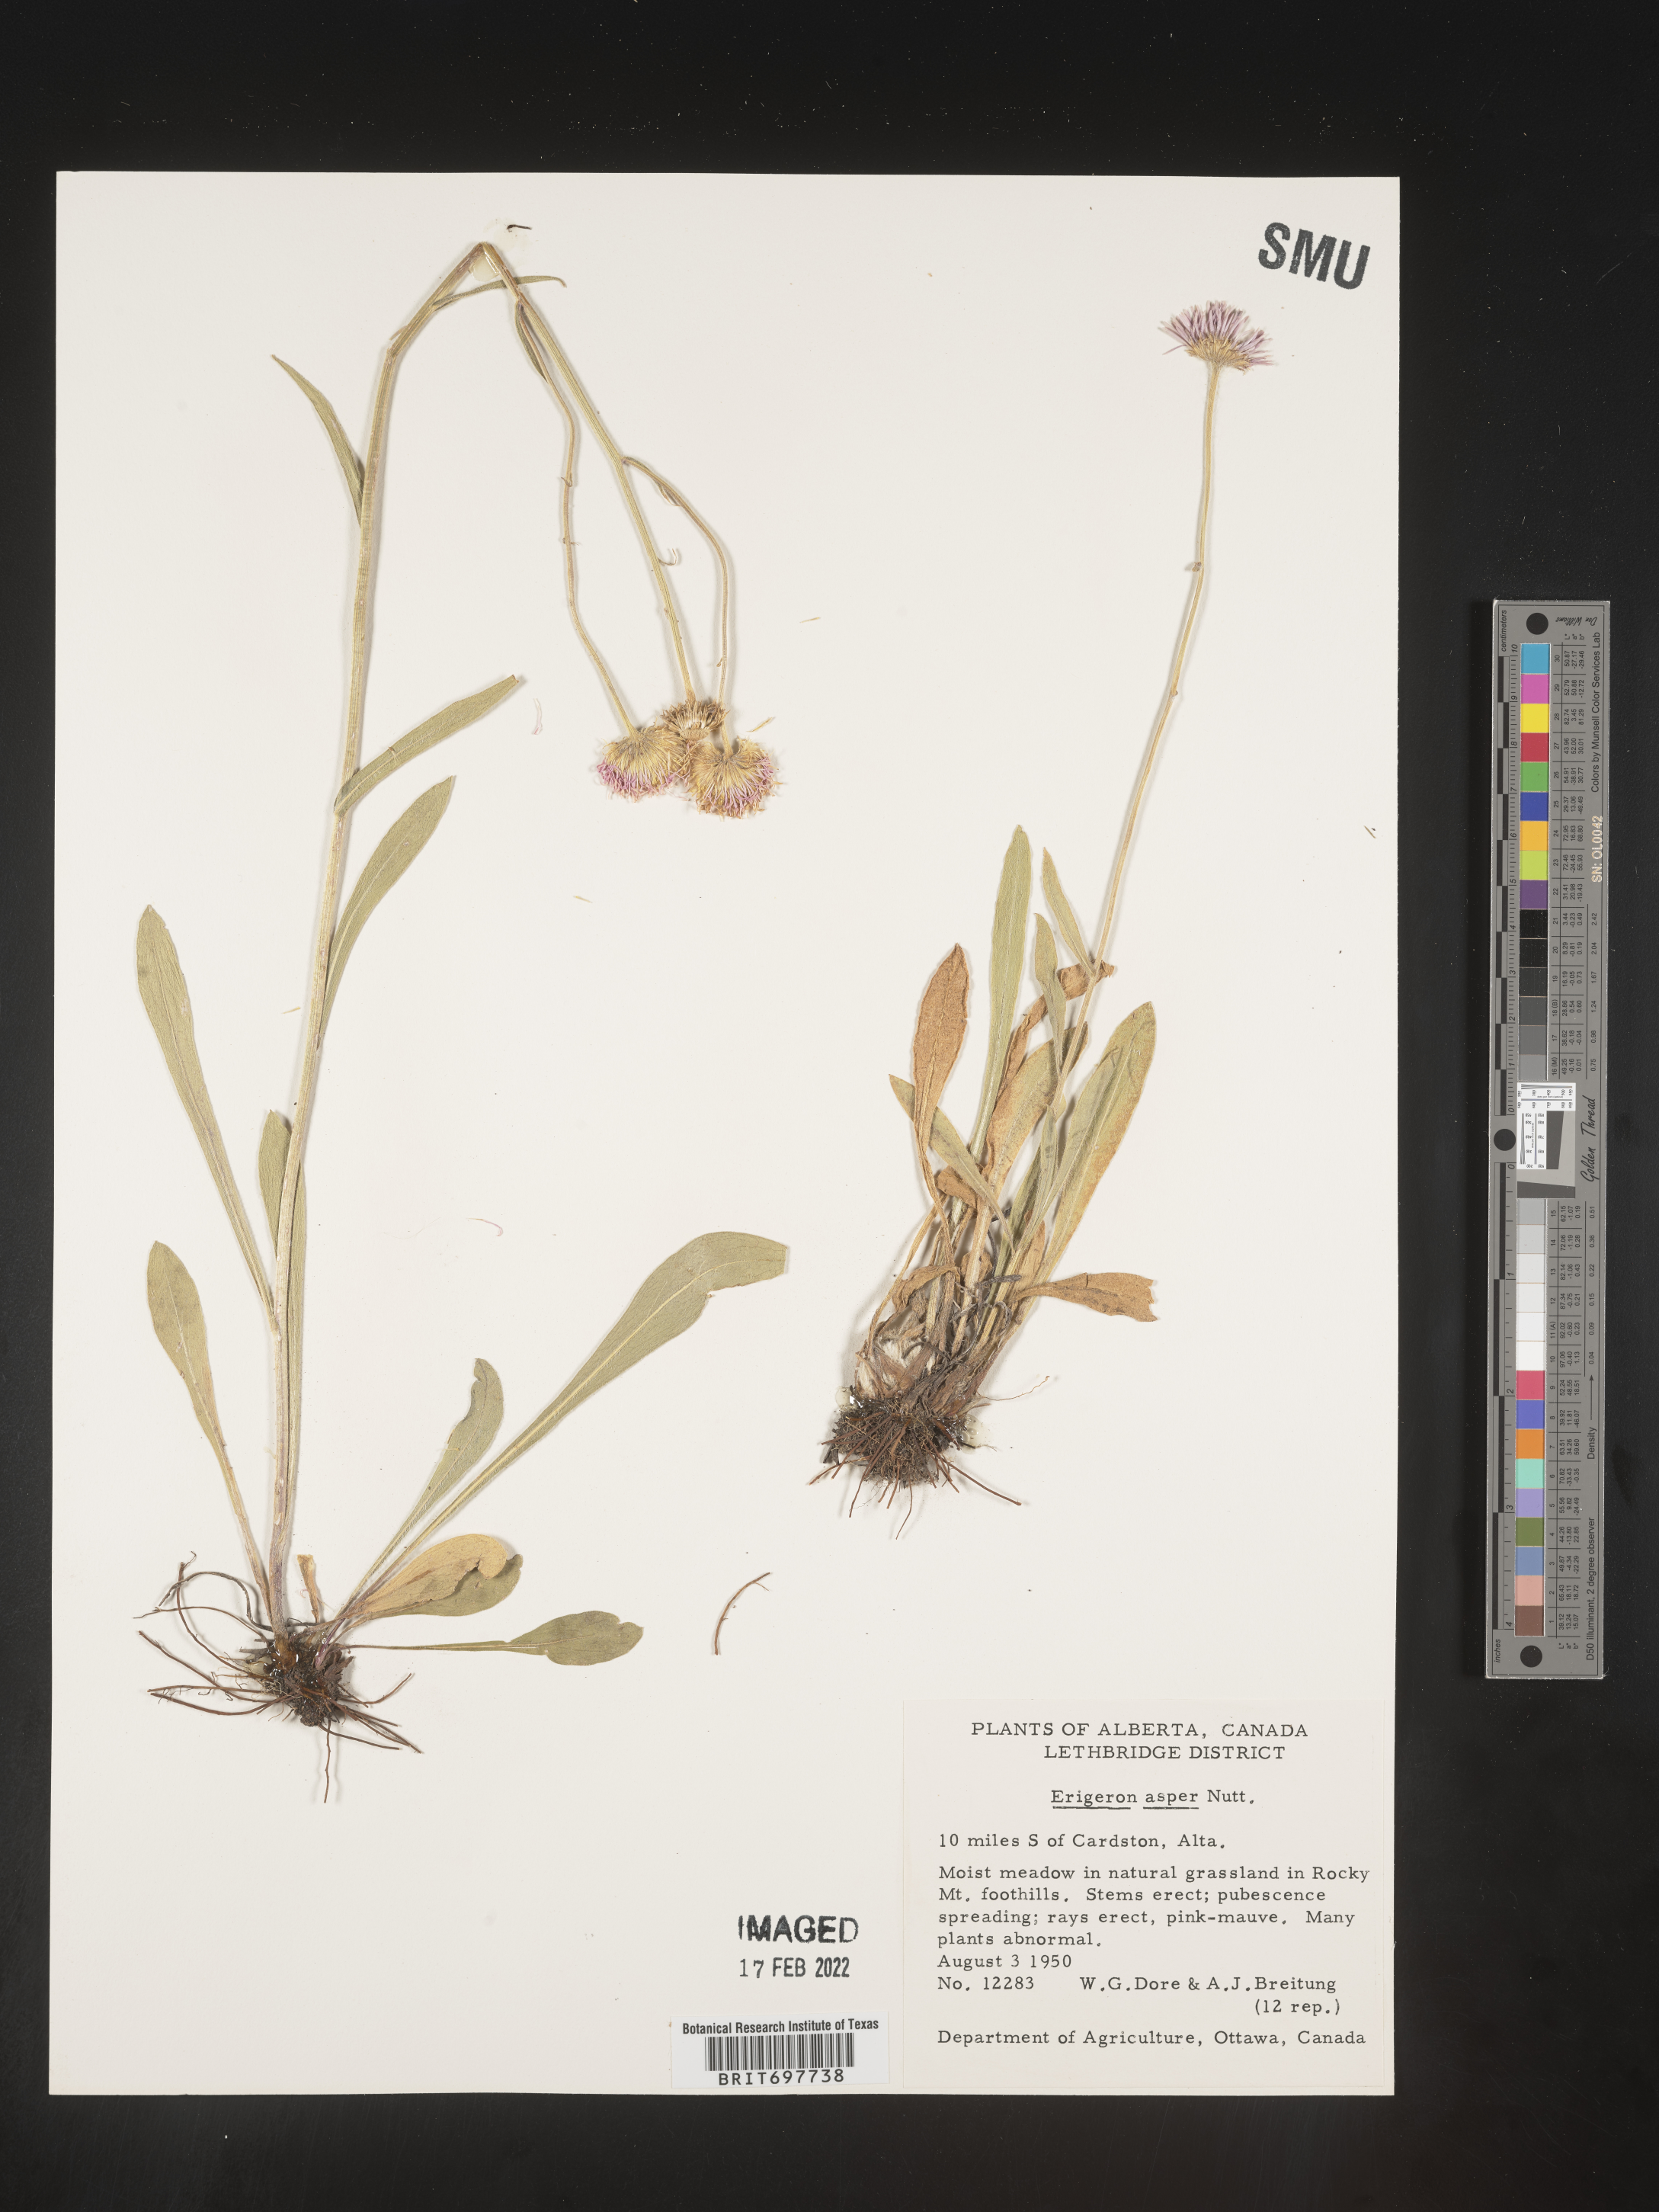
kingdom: Plantae
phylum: Tracheophyta
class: Magnoliopsida
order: Asterales
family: Asteraceae
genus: Erigeron
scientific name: Erigeron glabellus
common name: Smooth fleabane
